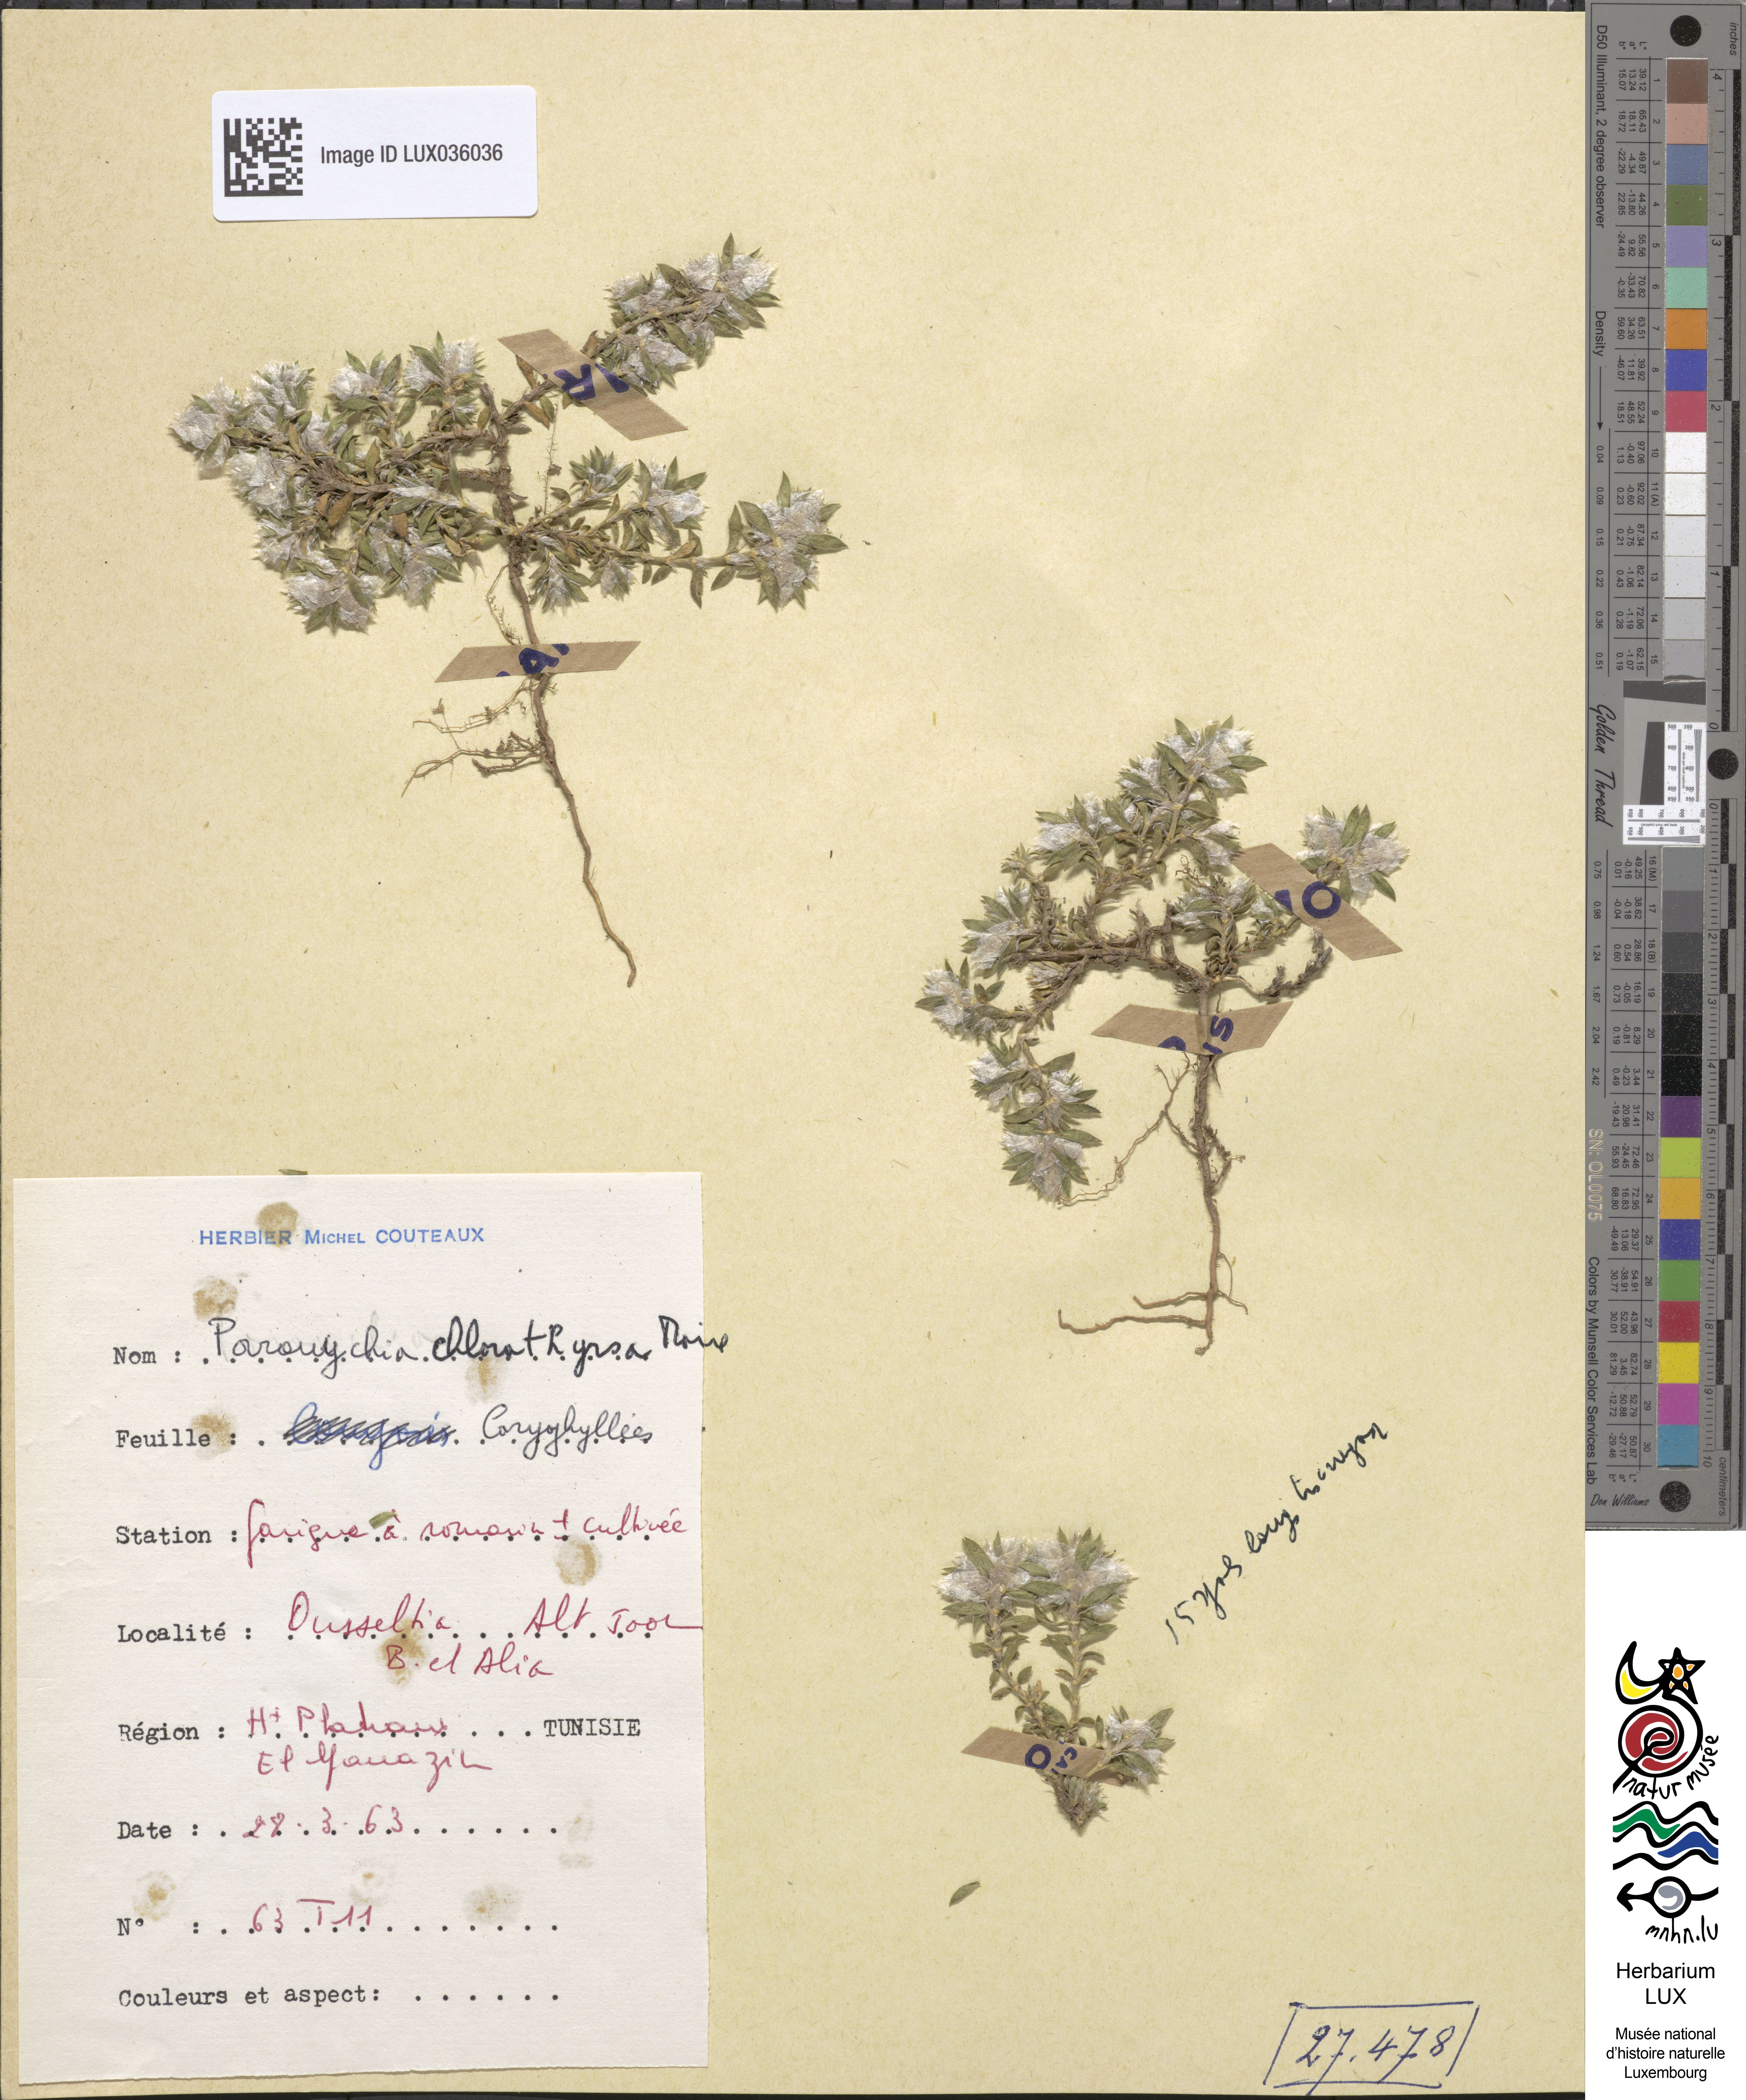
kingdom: Plantae
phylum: Tracheophyta
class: Magnoliopsida
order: Caryophyllales
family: Caryophyllaceae
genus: Paronychia
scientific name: Paronychia chlorothyrsa
